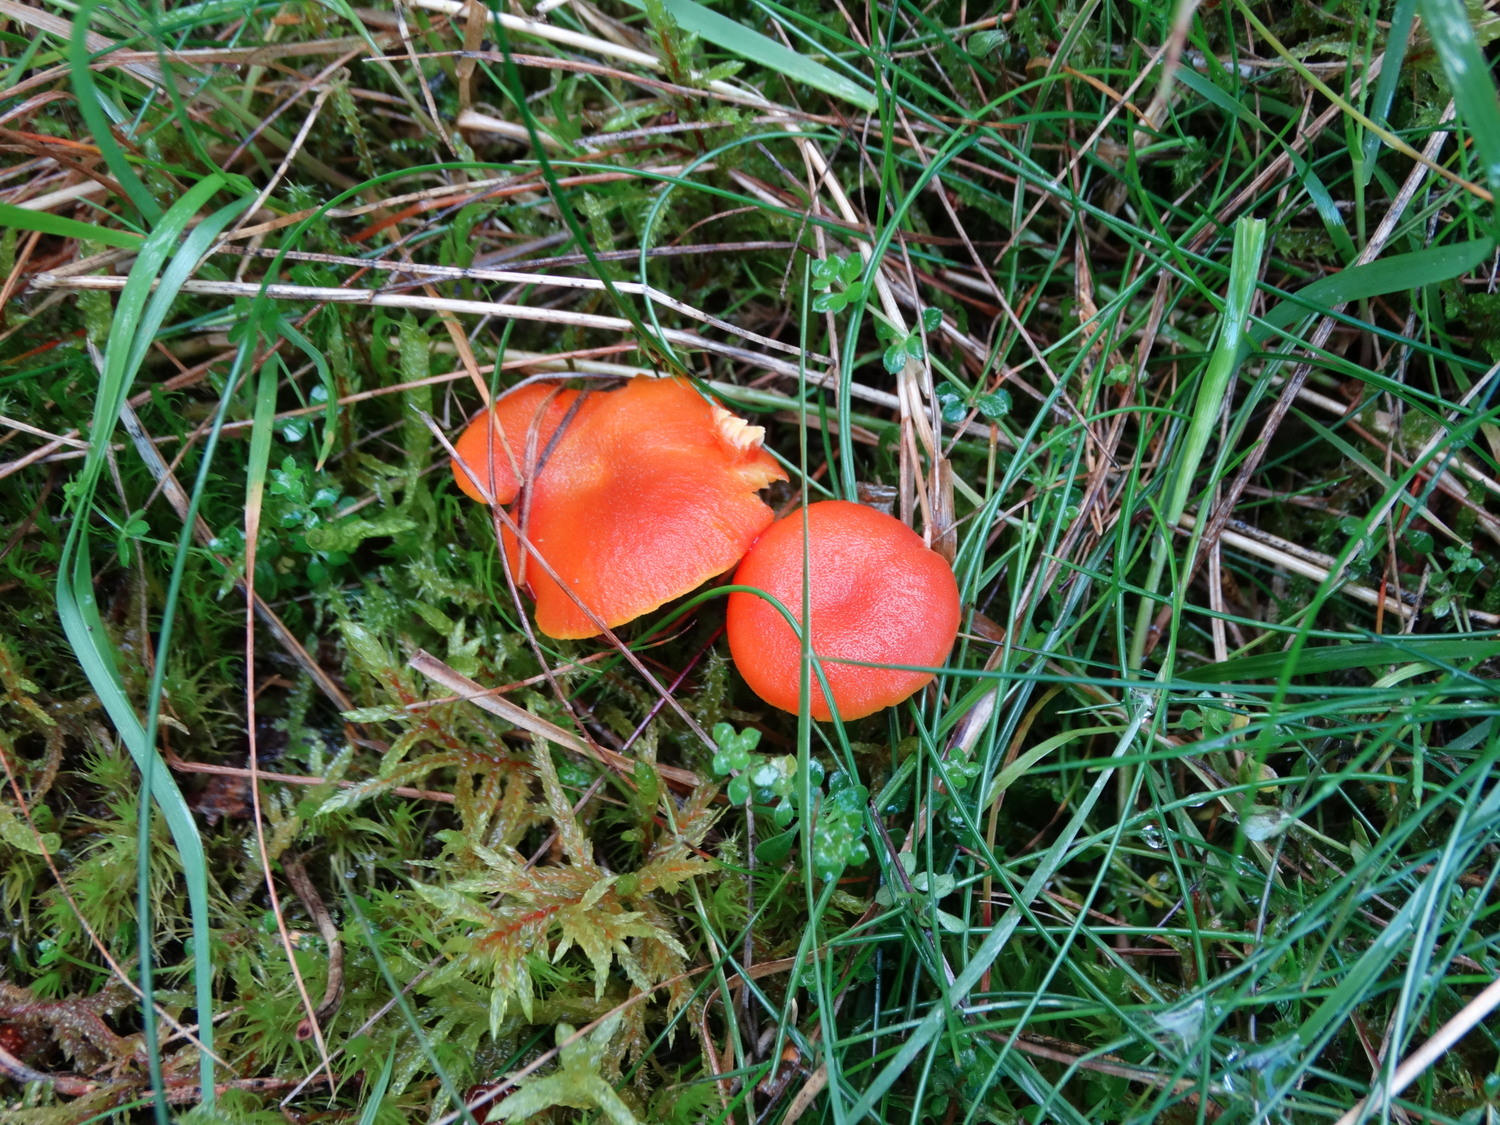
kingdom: Fungi
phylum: Basidiomycota
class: Agaricomycetes
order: Agaricales
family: Hygrophoraceae
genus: Hygrocybe
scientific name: Hygrocybe miniata
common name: mønje-vokshat
